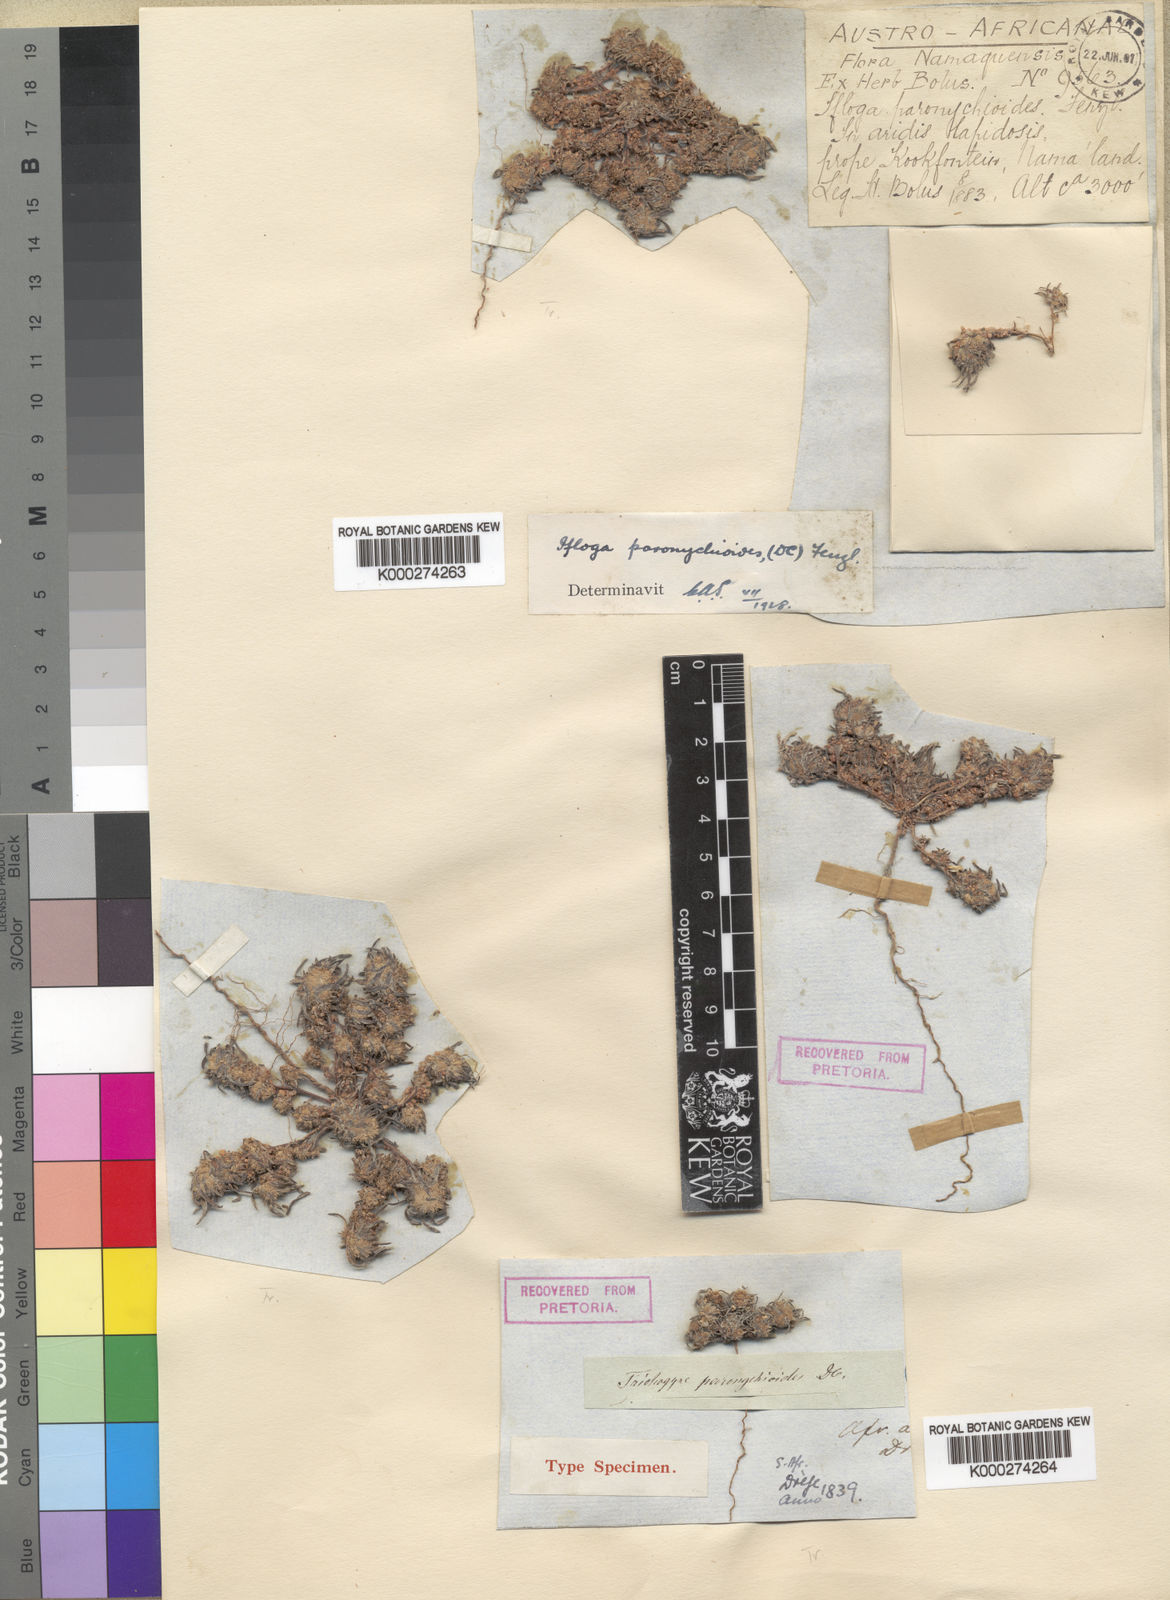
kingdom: Plantae
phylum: Tracheophyta
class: Magnoliopsida
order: Asterales
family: Asteraceae
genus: Ifloga
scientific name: Ifloga paronychioides
